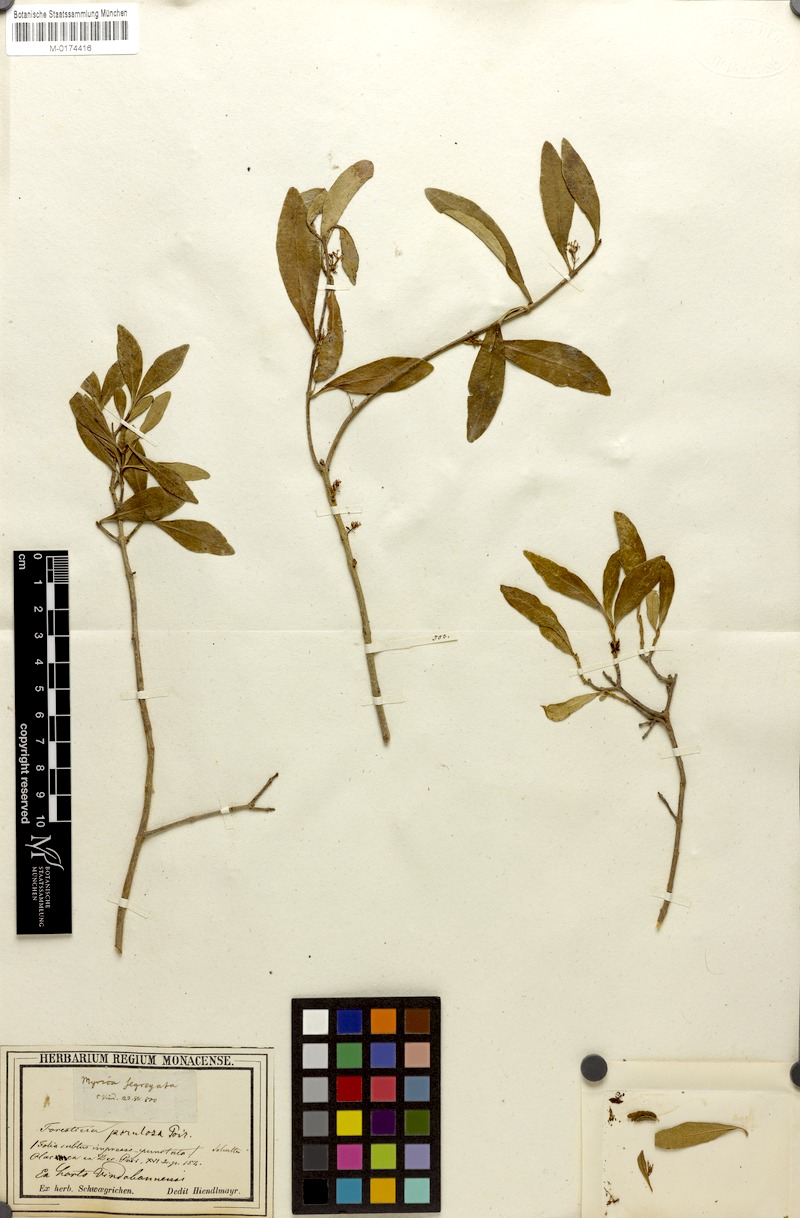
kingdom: Plantae
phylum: Tracheophyta
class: Magnoliopsida
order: Lamiales
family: Oleaceae
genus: Forestiera
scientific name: Forestiera segregata
